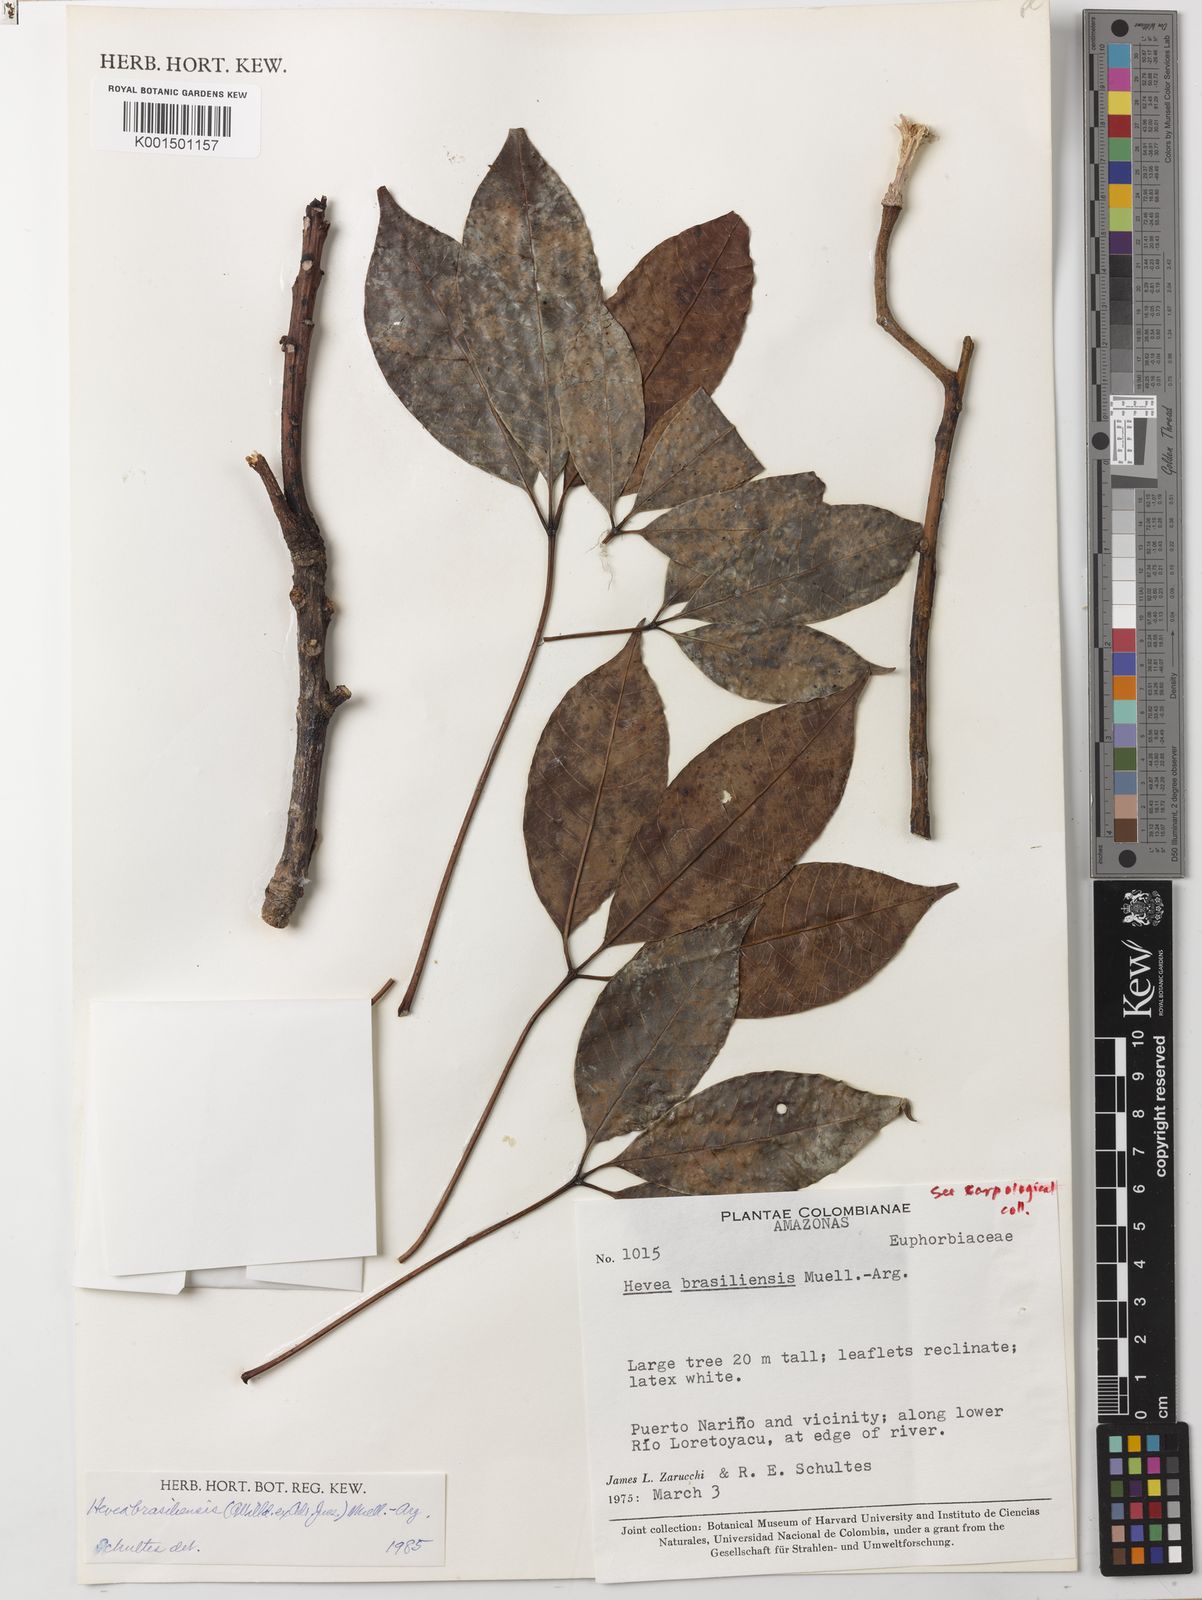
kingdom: Plantae
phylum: Tracheophyta
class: Magnoliopsida
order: Malpighiales
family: Euphorbiaceae
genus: Hevea
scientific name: Hevea brasiliensis
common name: Natural rubber
